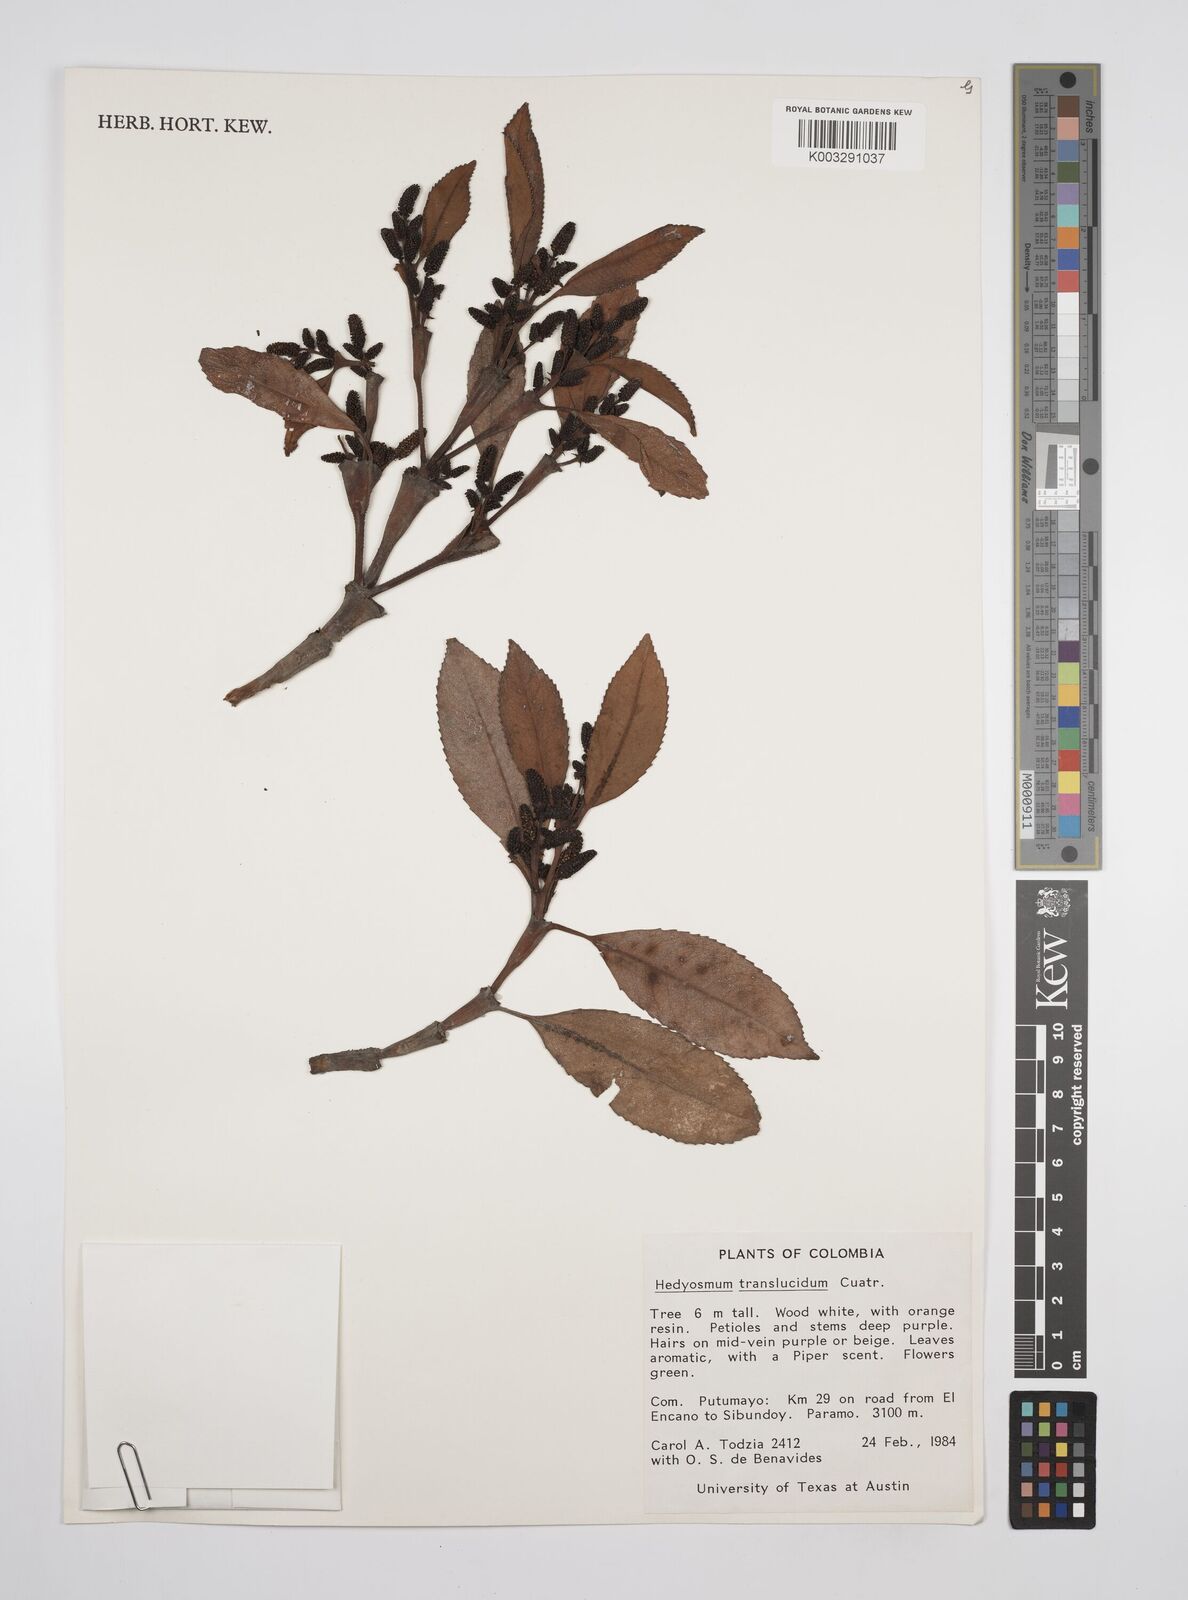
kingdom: Plantae
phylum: Tracheophyta
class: Magnoliopsida
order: Chloranthales
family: Chloranthaceae
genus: Hedyosmum
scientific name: Hedyosmum translucidum
